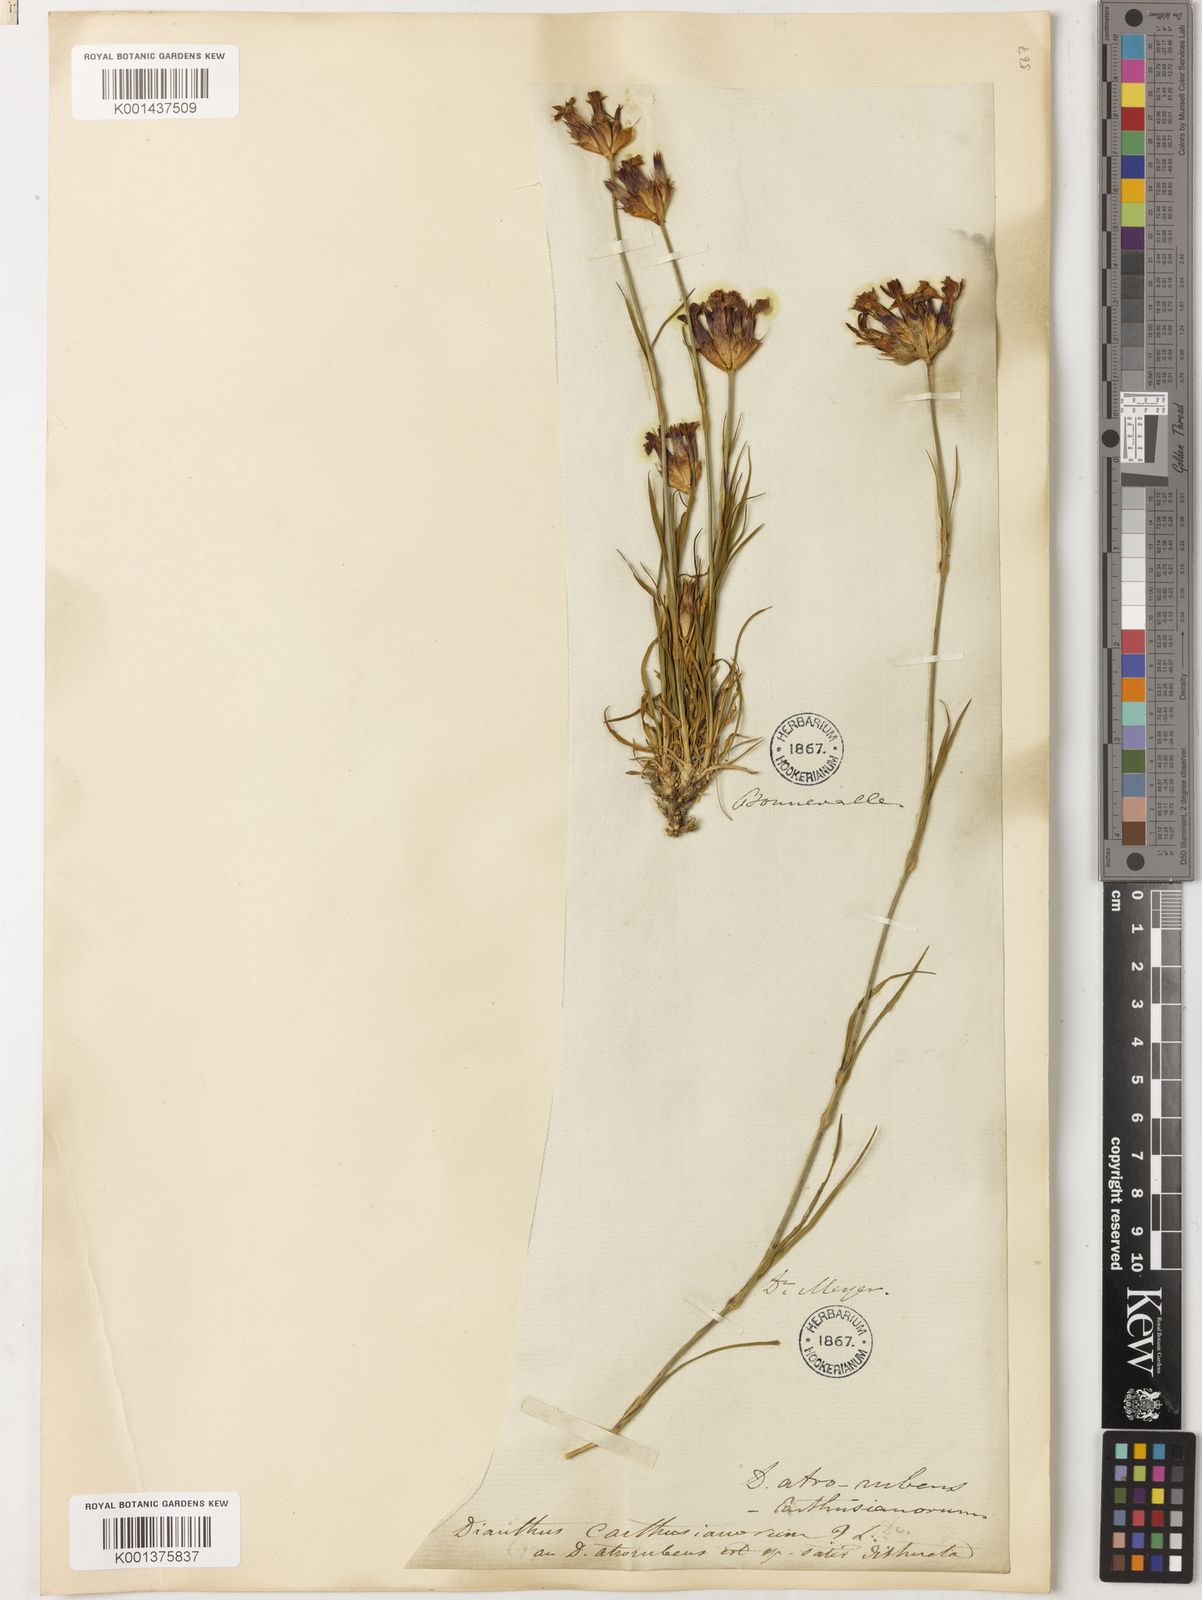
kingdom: Plantae
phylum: Tracheophyta
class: Magnoliopsida
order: Caryophyllales
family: Caryophyllaceae
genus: Dianthus
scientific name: Dianthus carthusianorum
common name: Carthusian pink
